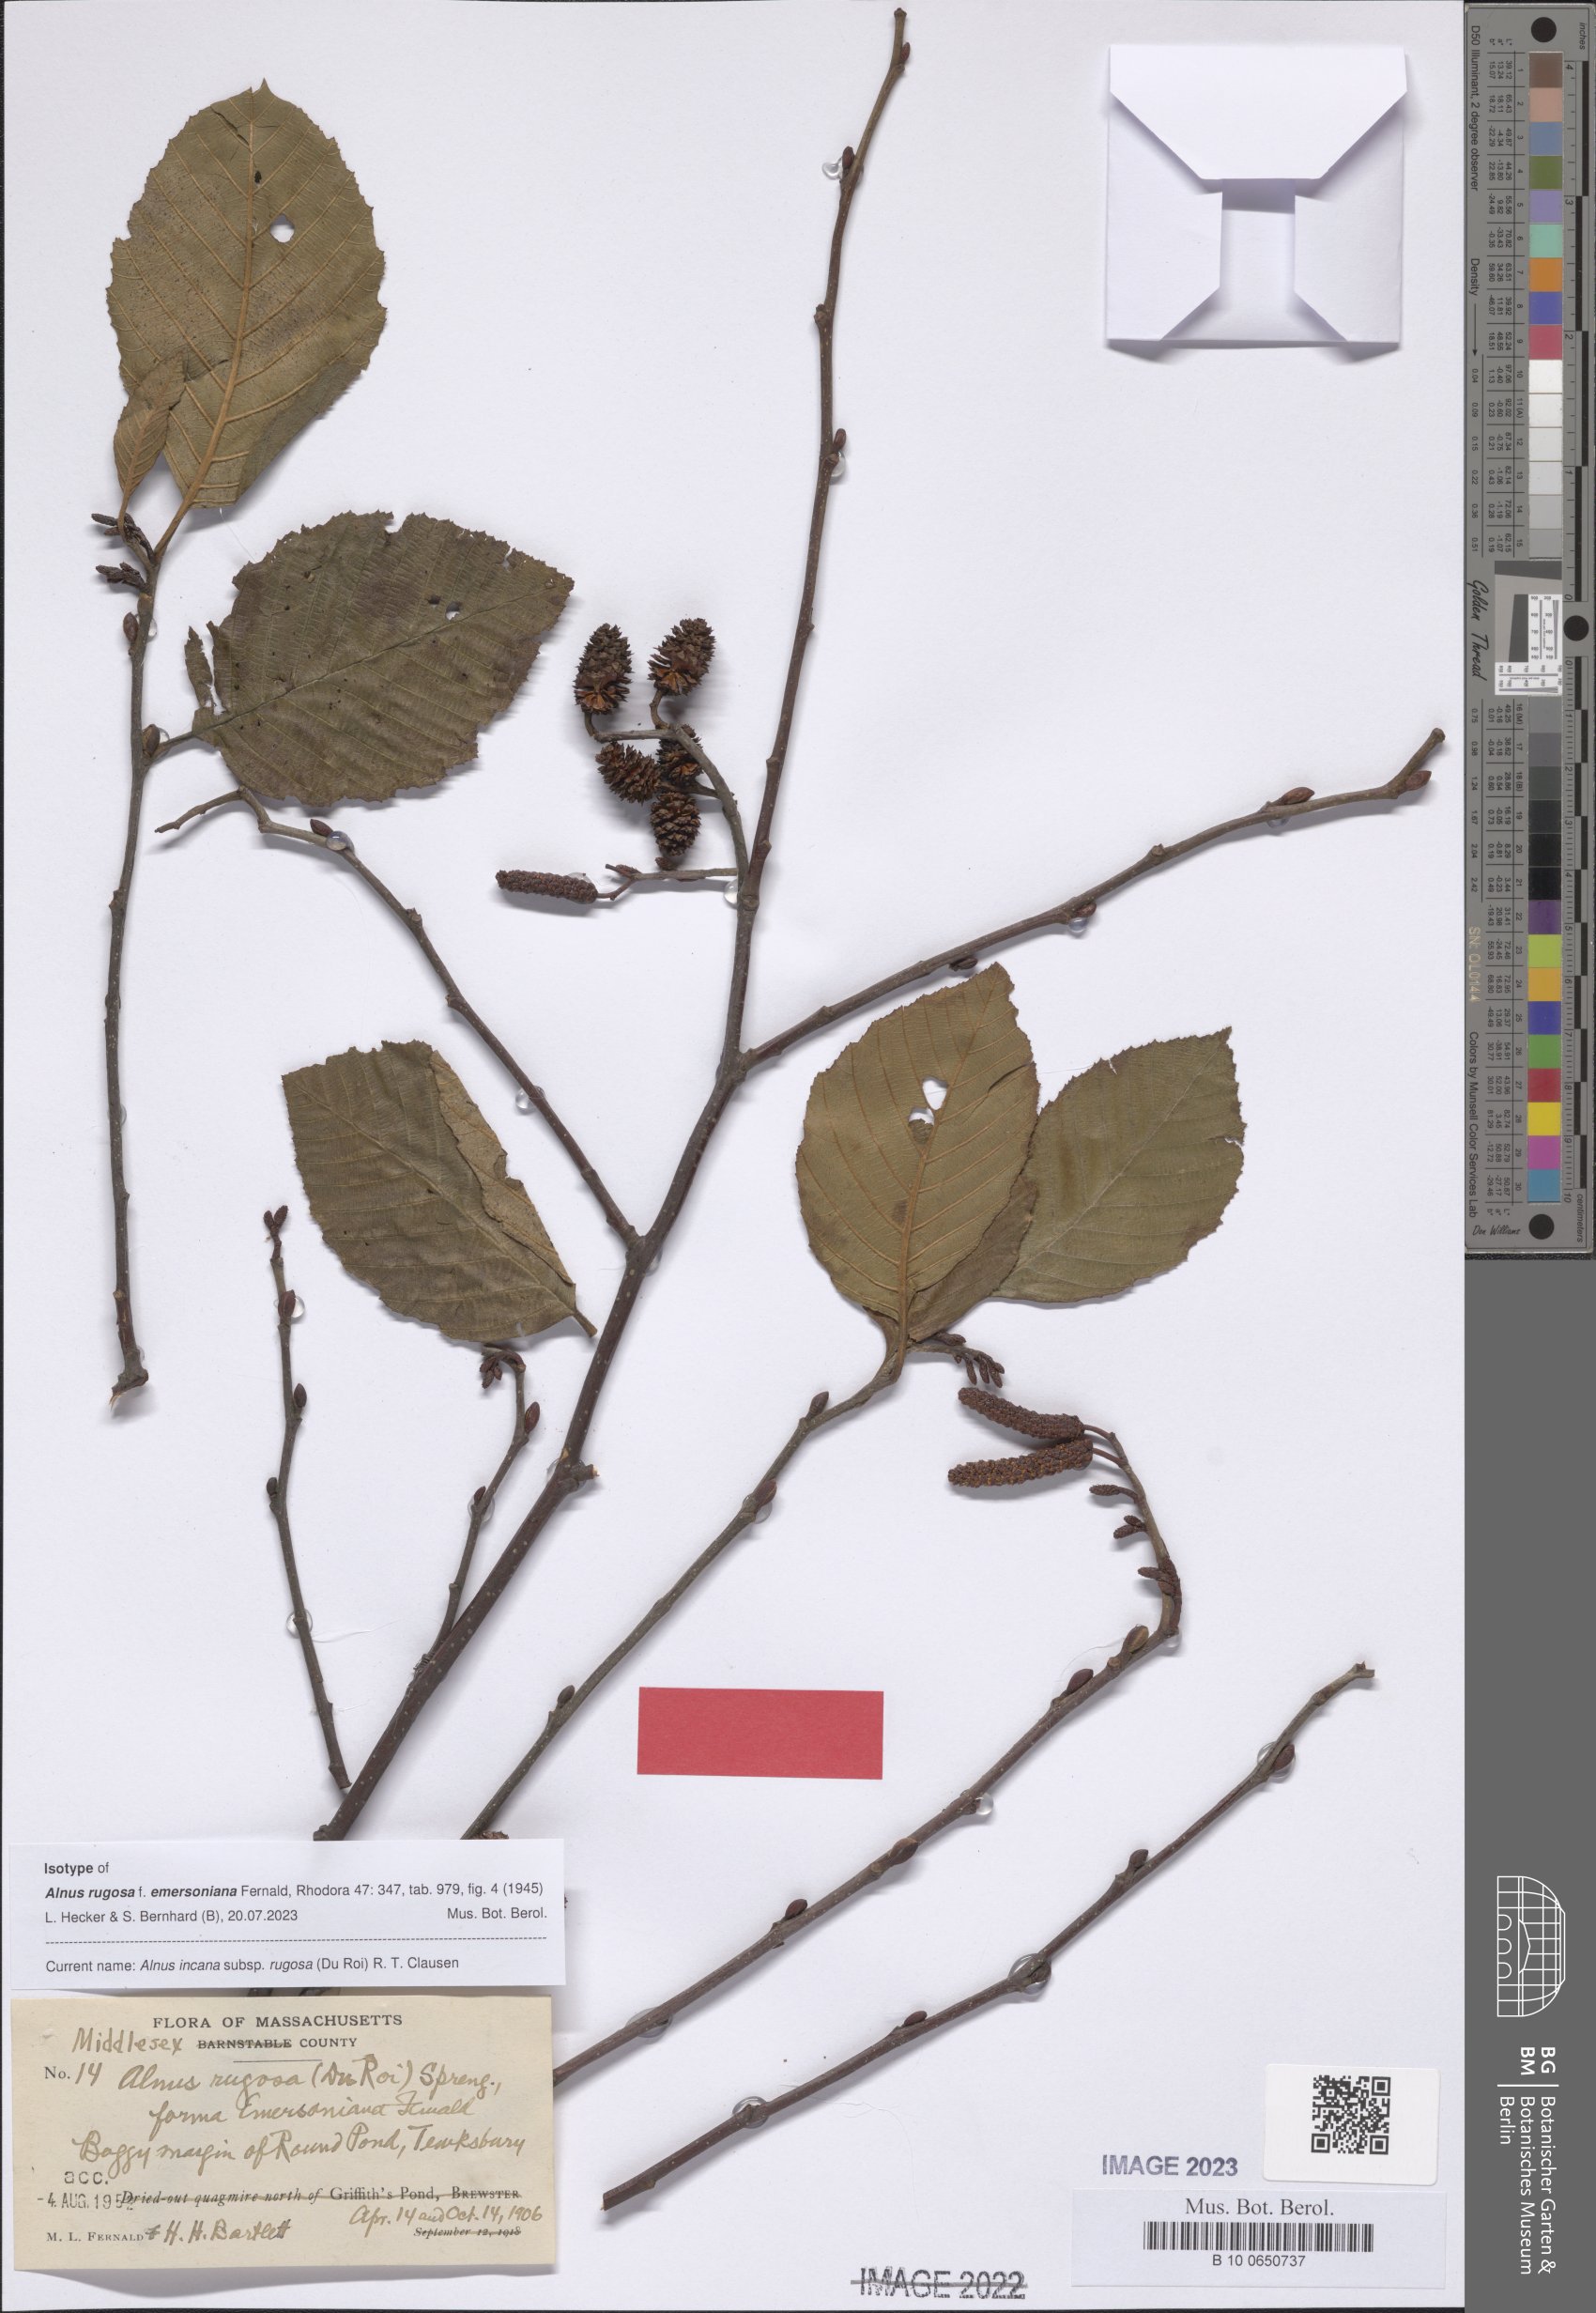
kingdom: Plantae
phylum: Tracheophyta
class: Magnoliopsida
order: Fagales
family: Betulaceae
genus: Alnus
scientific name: Alnus incana
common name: Grey alder
